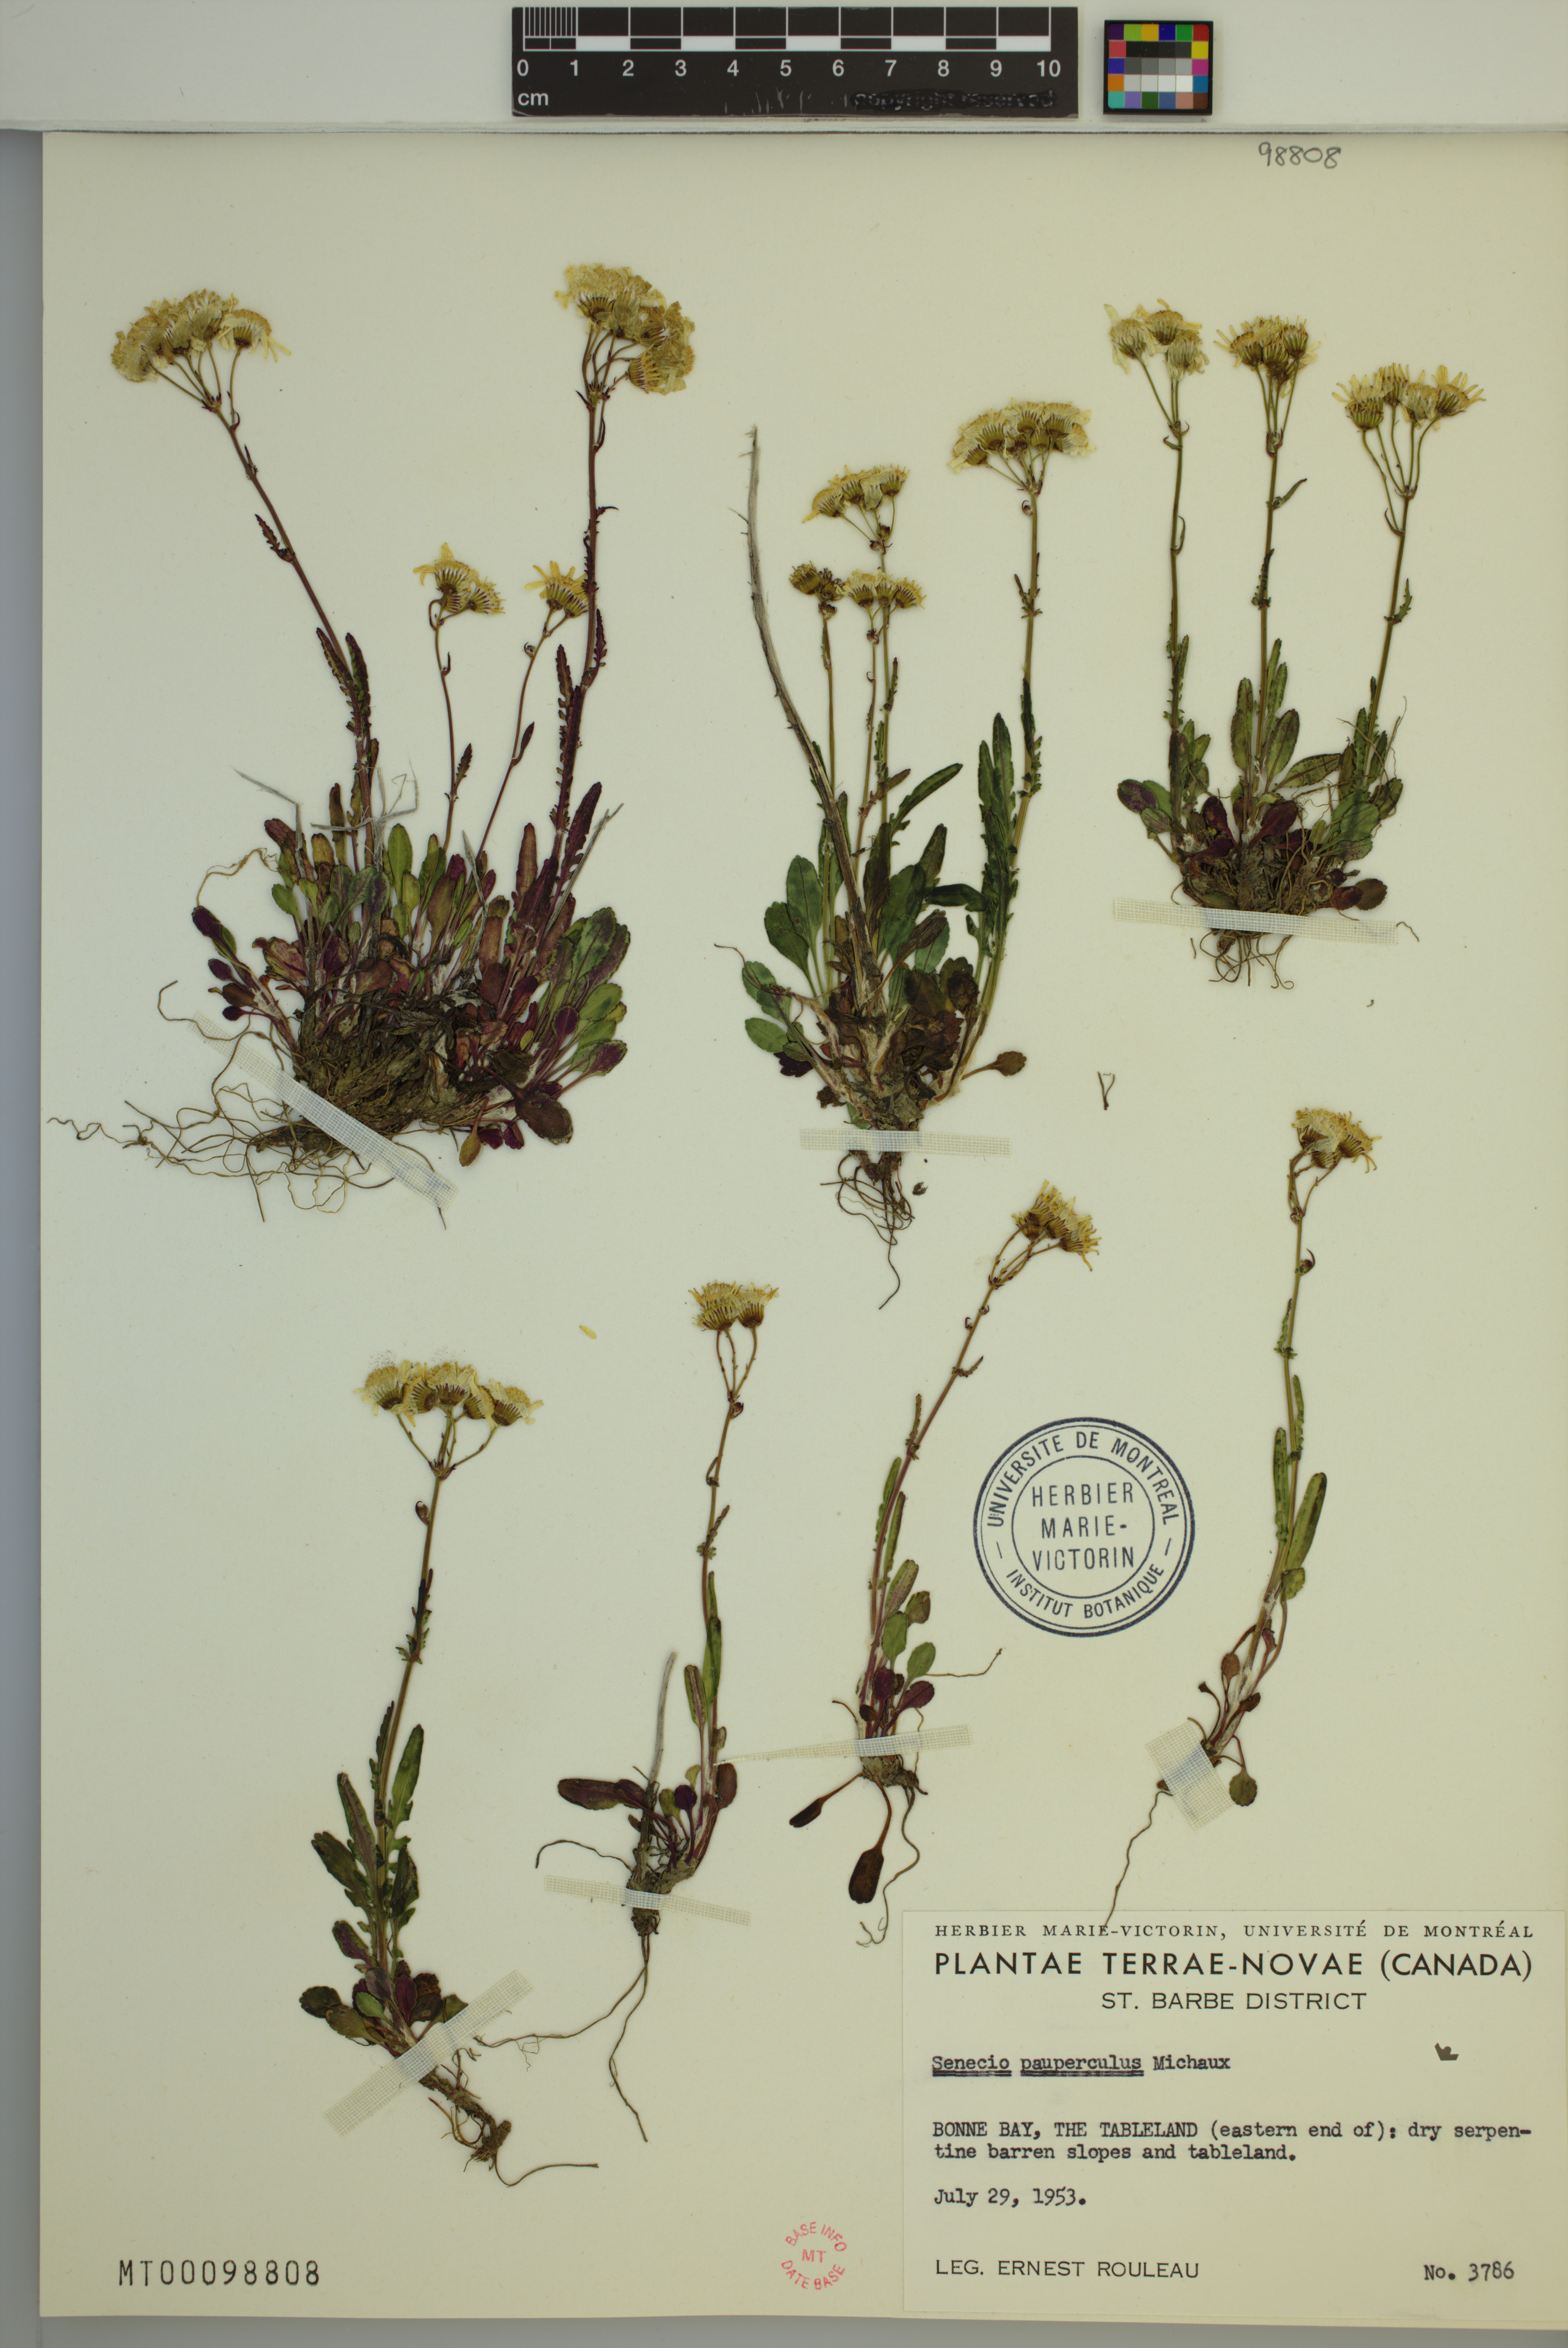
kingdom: Plantae
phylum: Tracheophyta
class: Magnoliopsida
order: Asterales
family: Asteraceae
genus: Packera
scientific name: Packera paupercula
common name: Balsam groundsel
